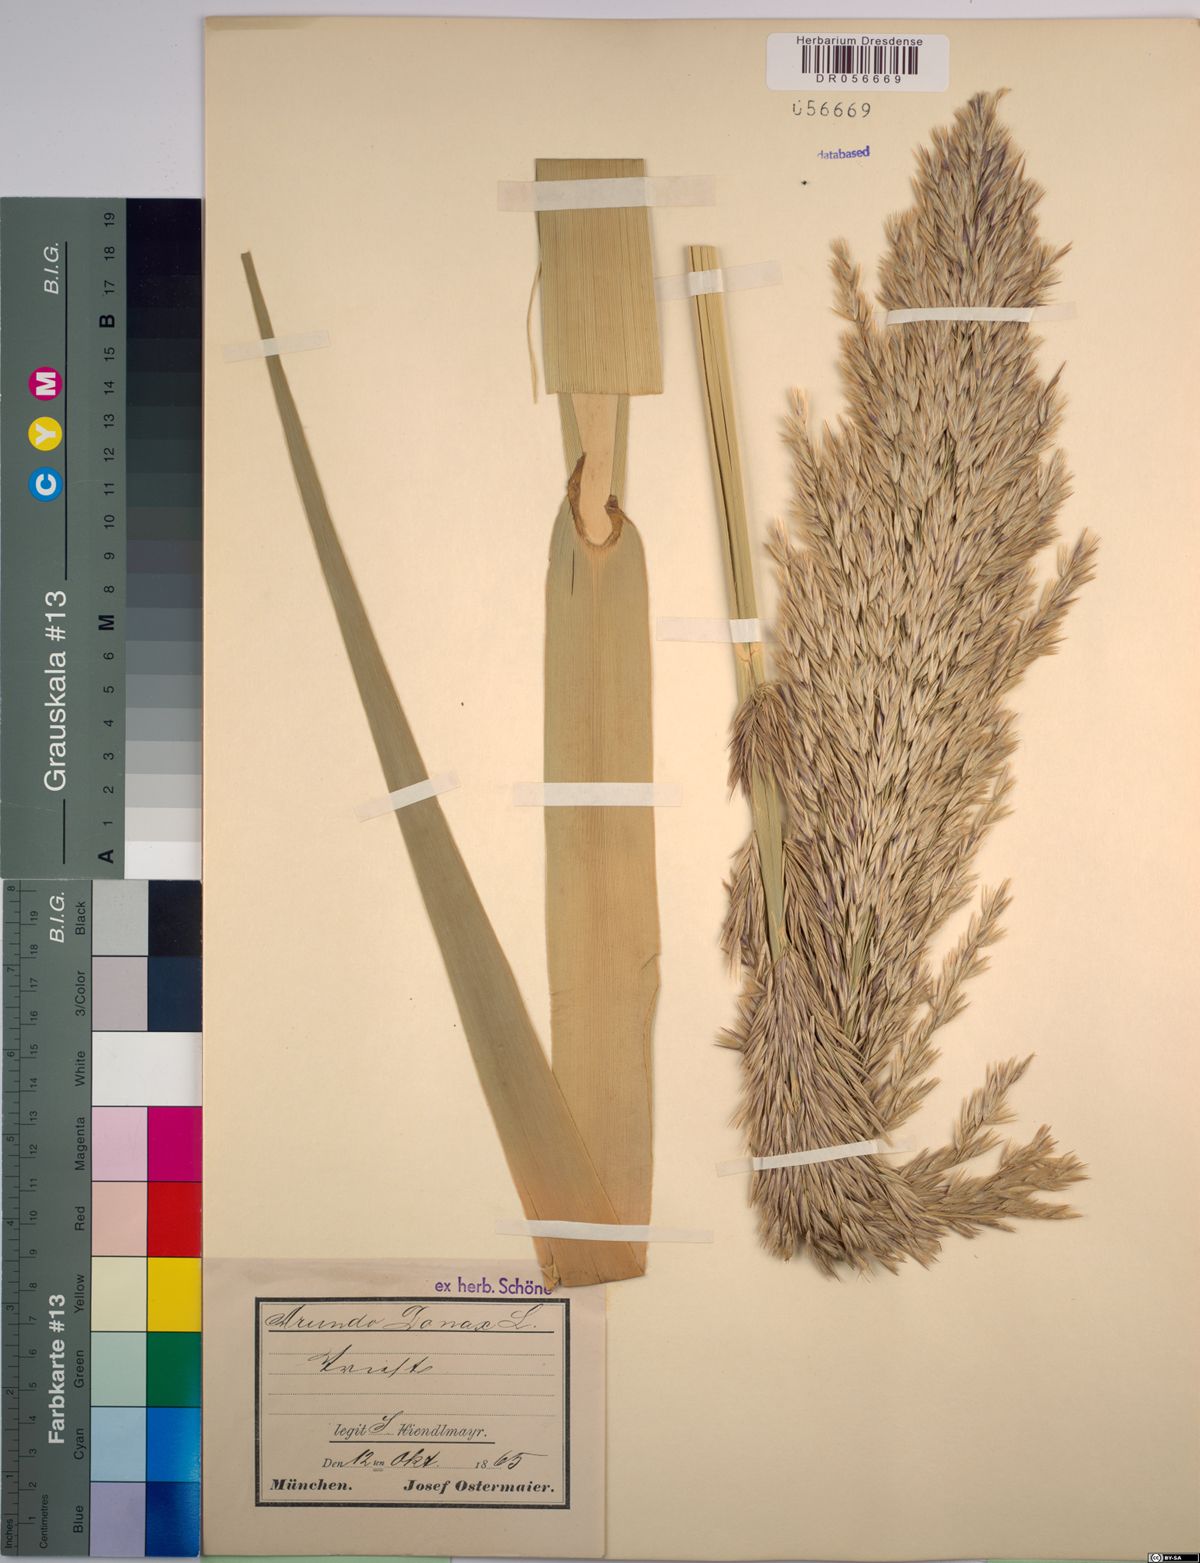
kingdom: Plantae
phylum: Tracheophyta
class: Liliopsida
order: Poales
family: Poaceae
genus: Arundo
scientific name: Arundo donax
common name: Giant reed
